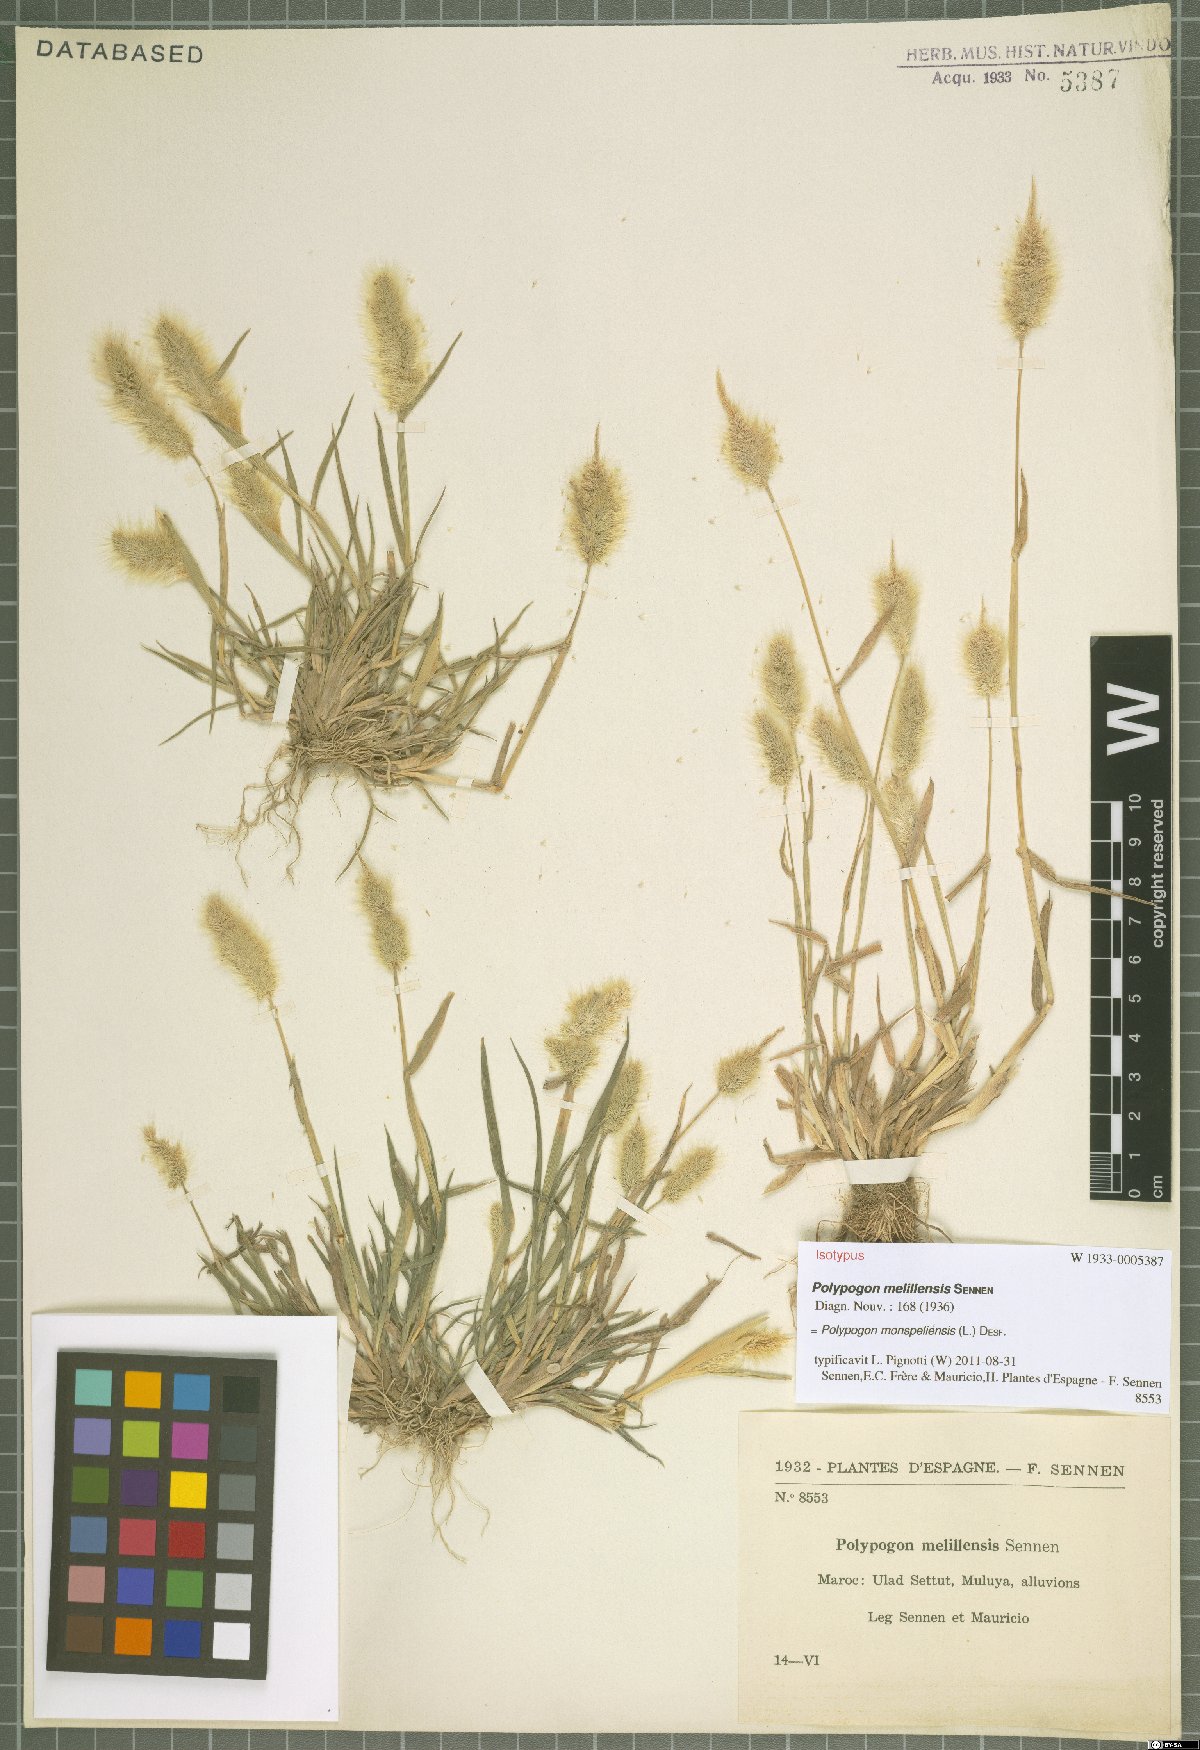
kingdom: Plantae
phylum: Tracheophyta
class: Liliopsida
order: Poales
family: Poaceae
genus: Polypogon
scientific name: Polypogon monspeliensis
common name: Annual rabbitsfoot grass
